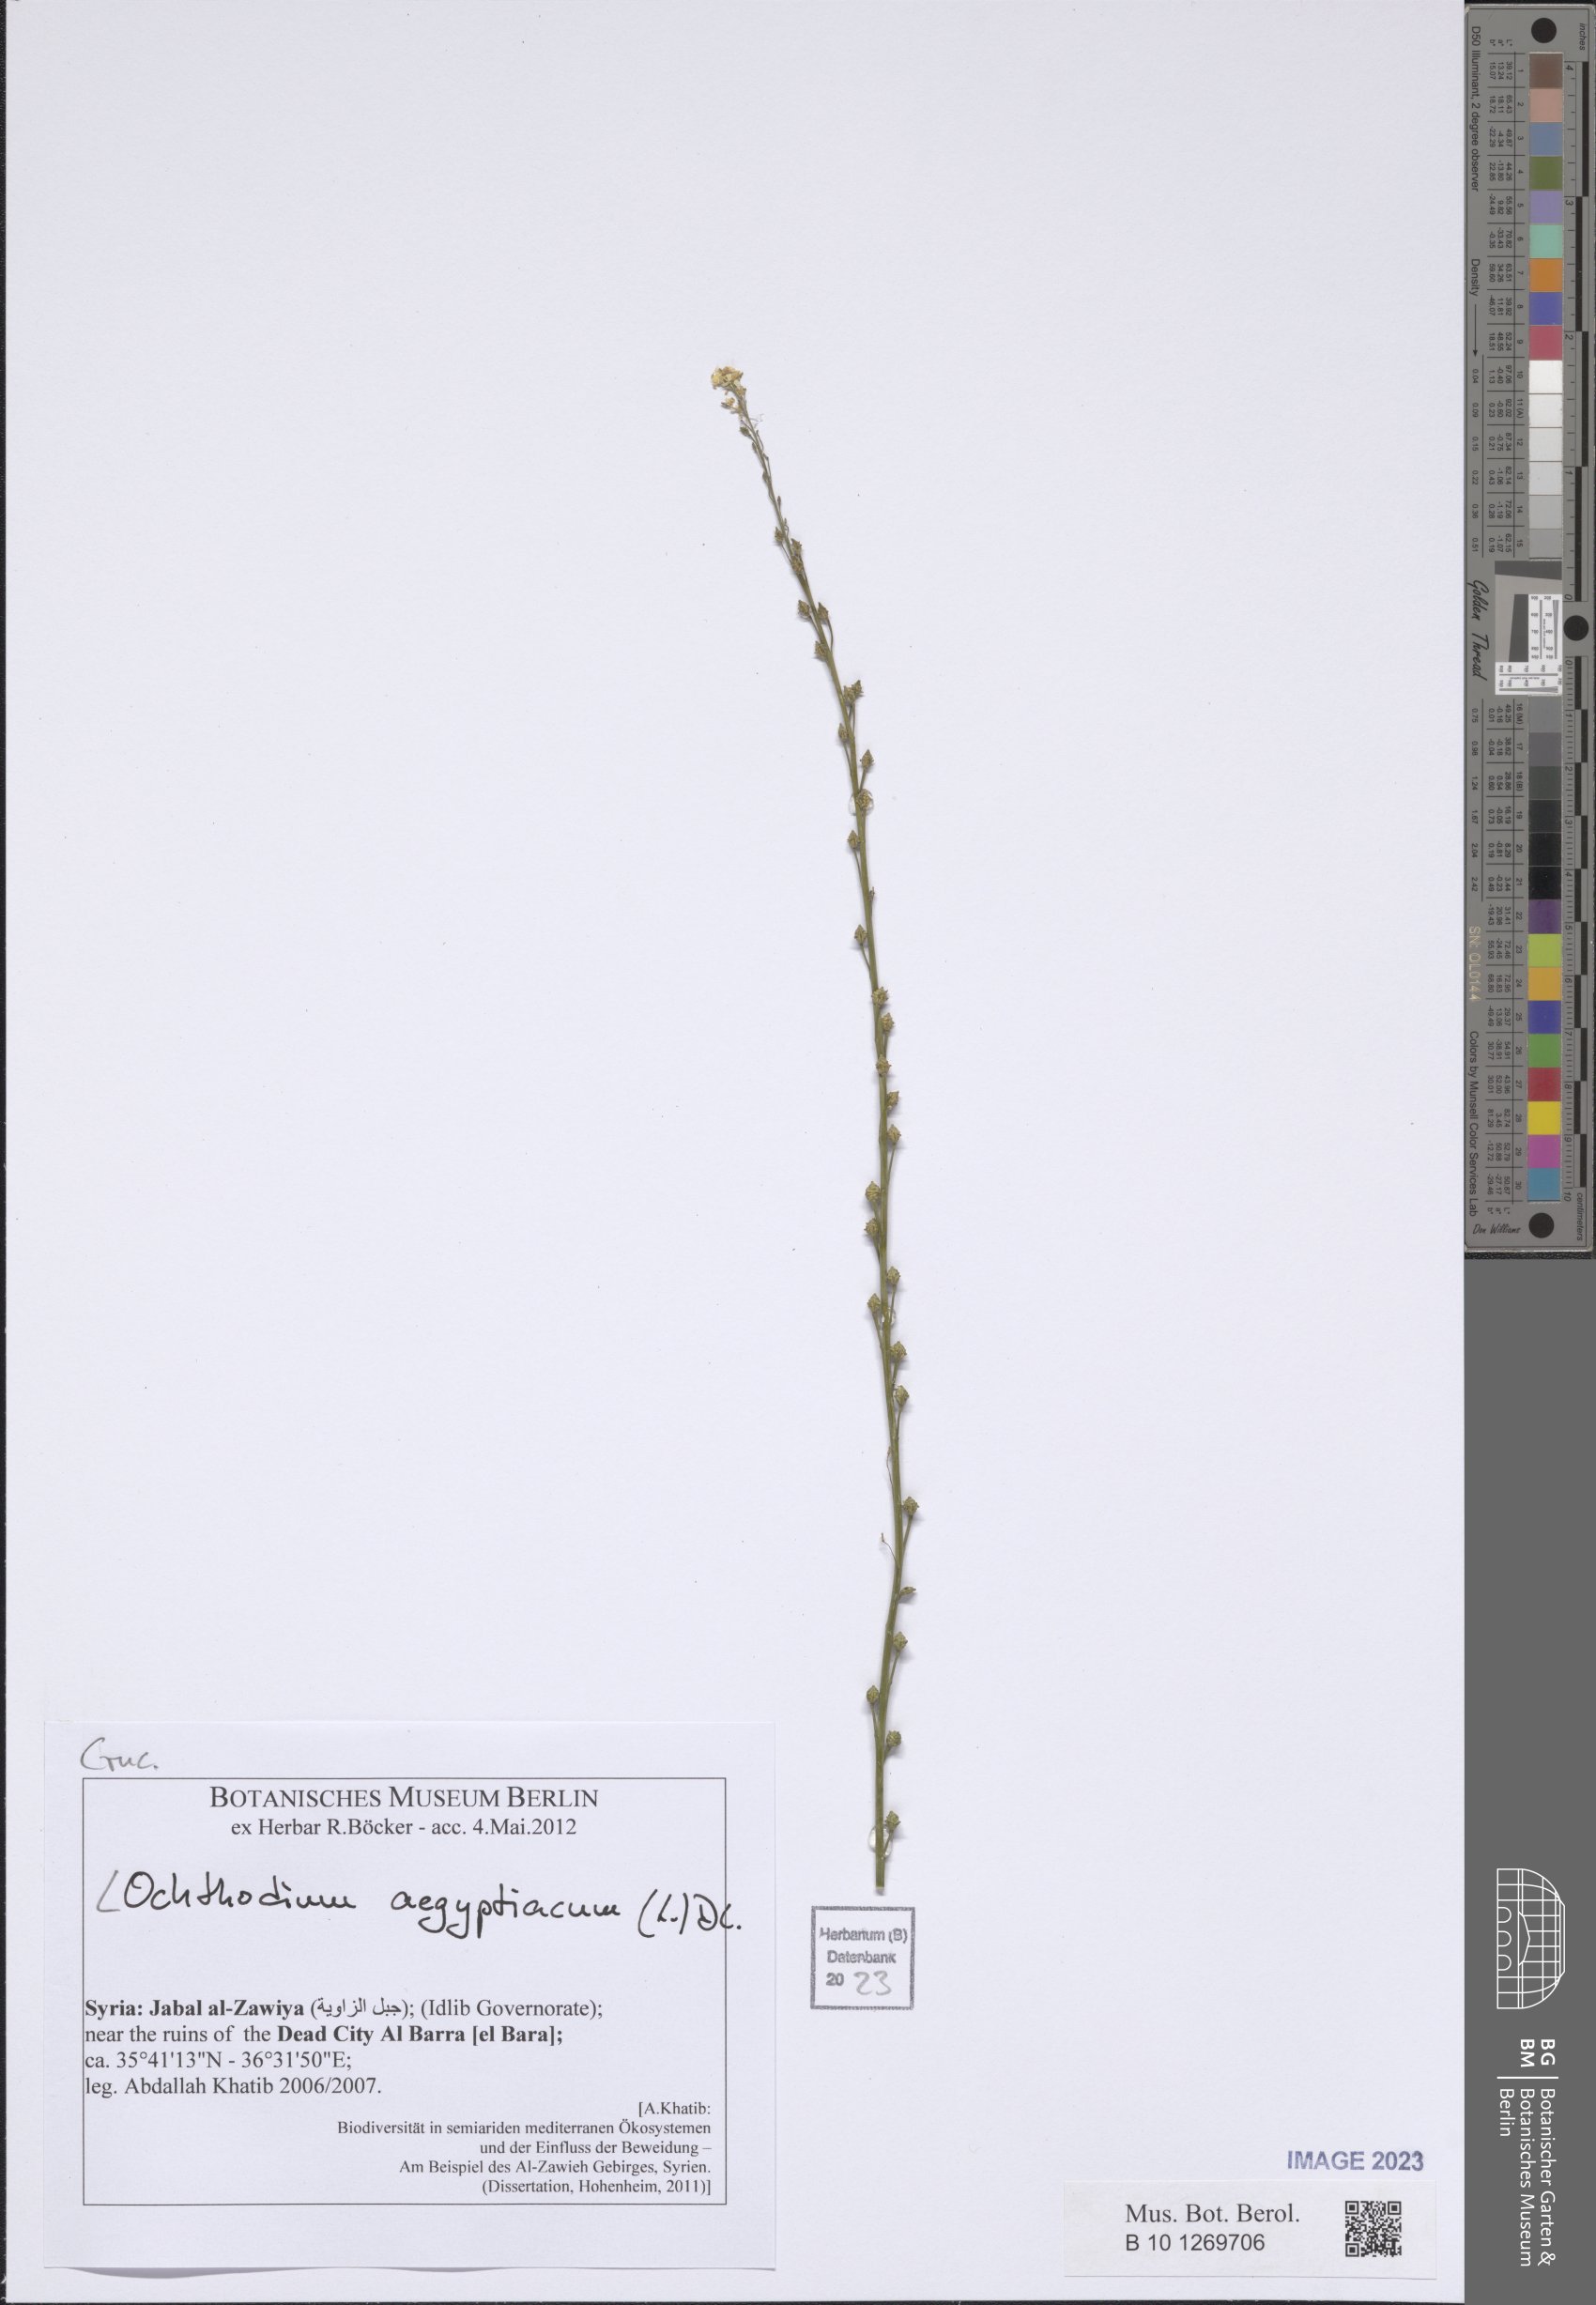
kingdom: Plantae
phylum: Tracheophyta
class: Magnoliopsida
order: Brassicales
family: Brassicaceae
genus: Ochthodium
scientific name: Ochthodium aegyptiacum
